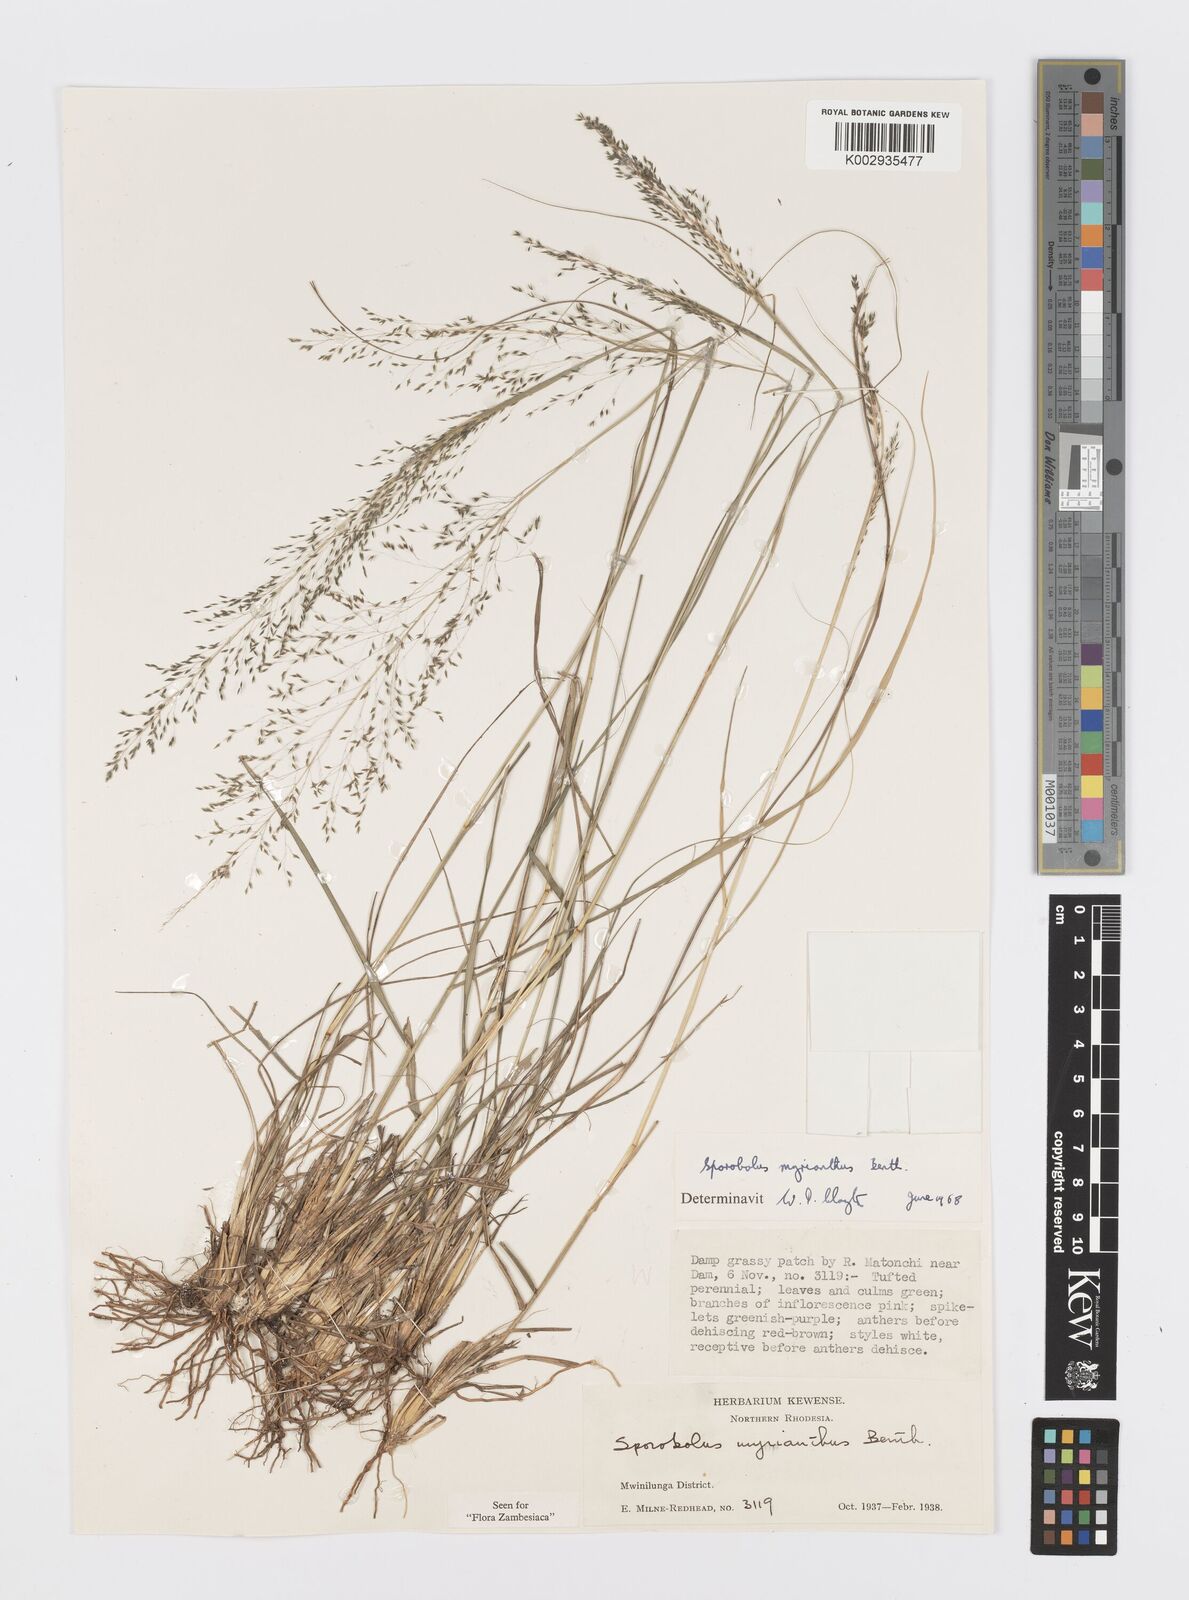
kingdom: Plantae
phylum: Tracheophyta
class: Liliopsida
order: Poales
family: Poaceae
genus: Sporobolus
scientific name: Sporobolus myrianthus
